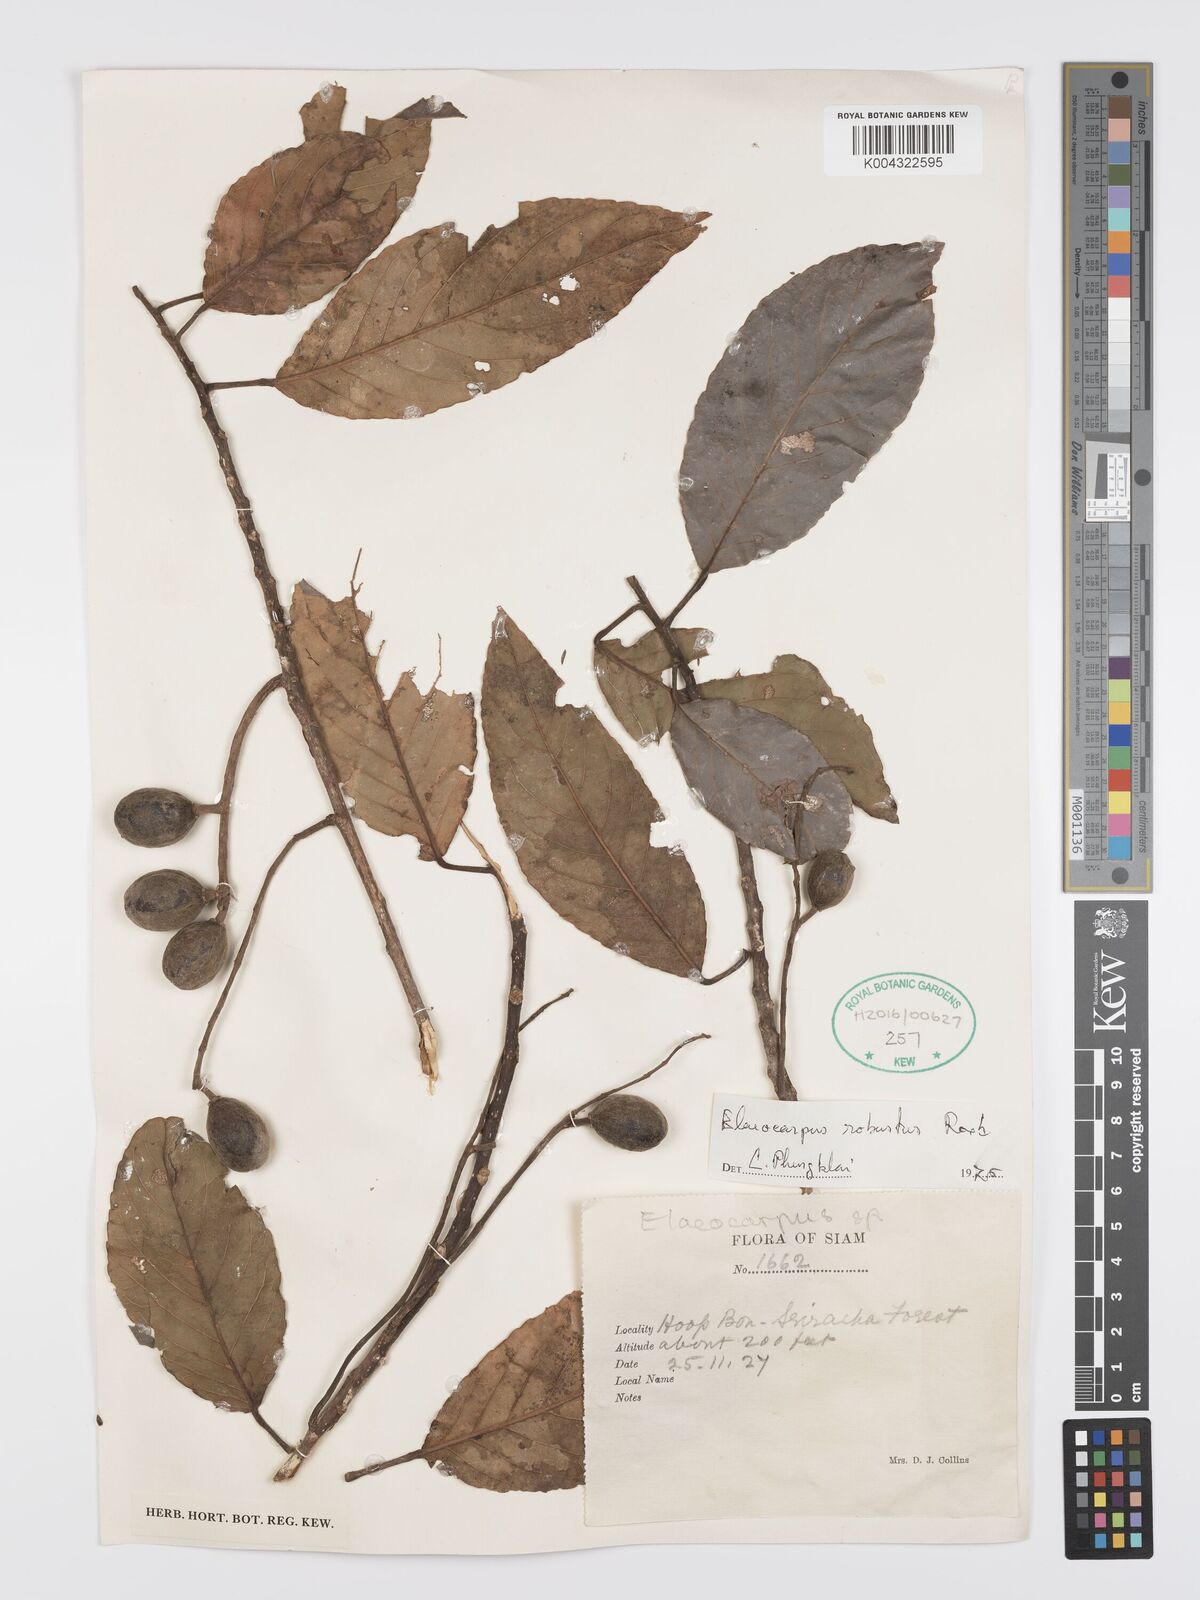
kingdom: Plantae
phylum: Tracheophyta
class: Magnoliopsida
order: Oxalidales
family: Elaeocarpaceae
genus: Elaeocarpus
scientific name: Elaeocarpus robustus
